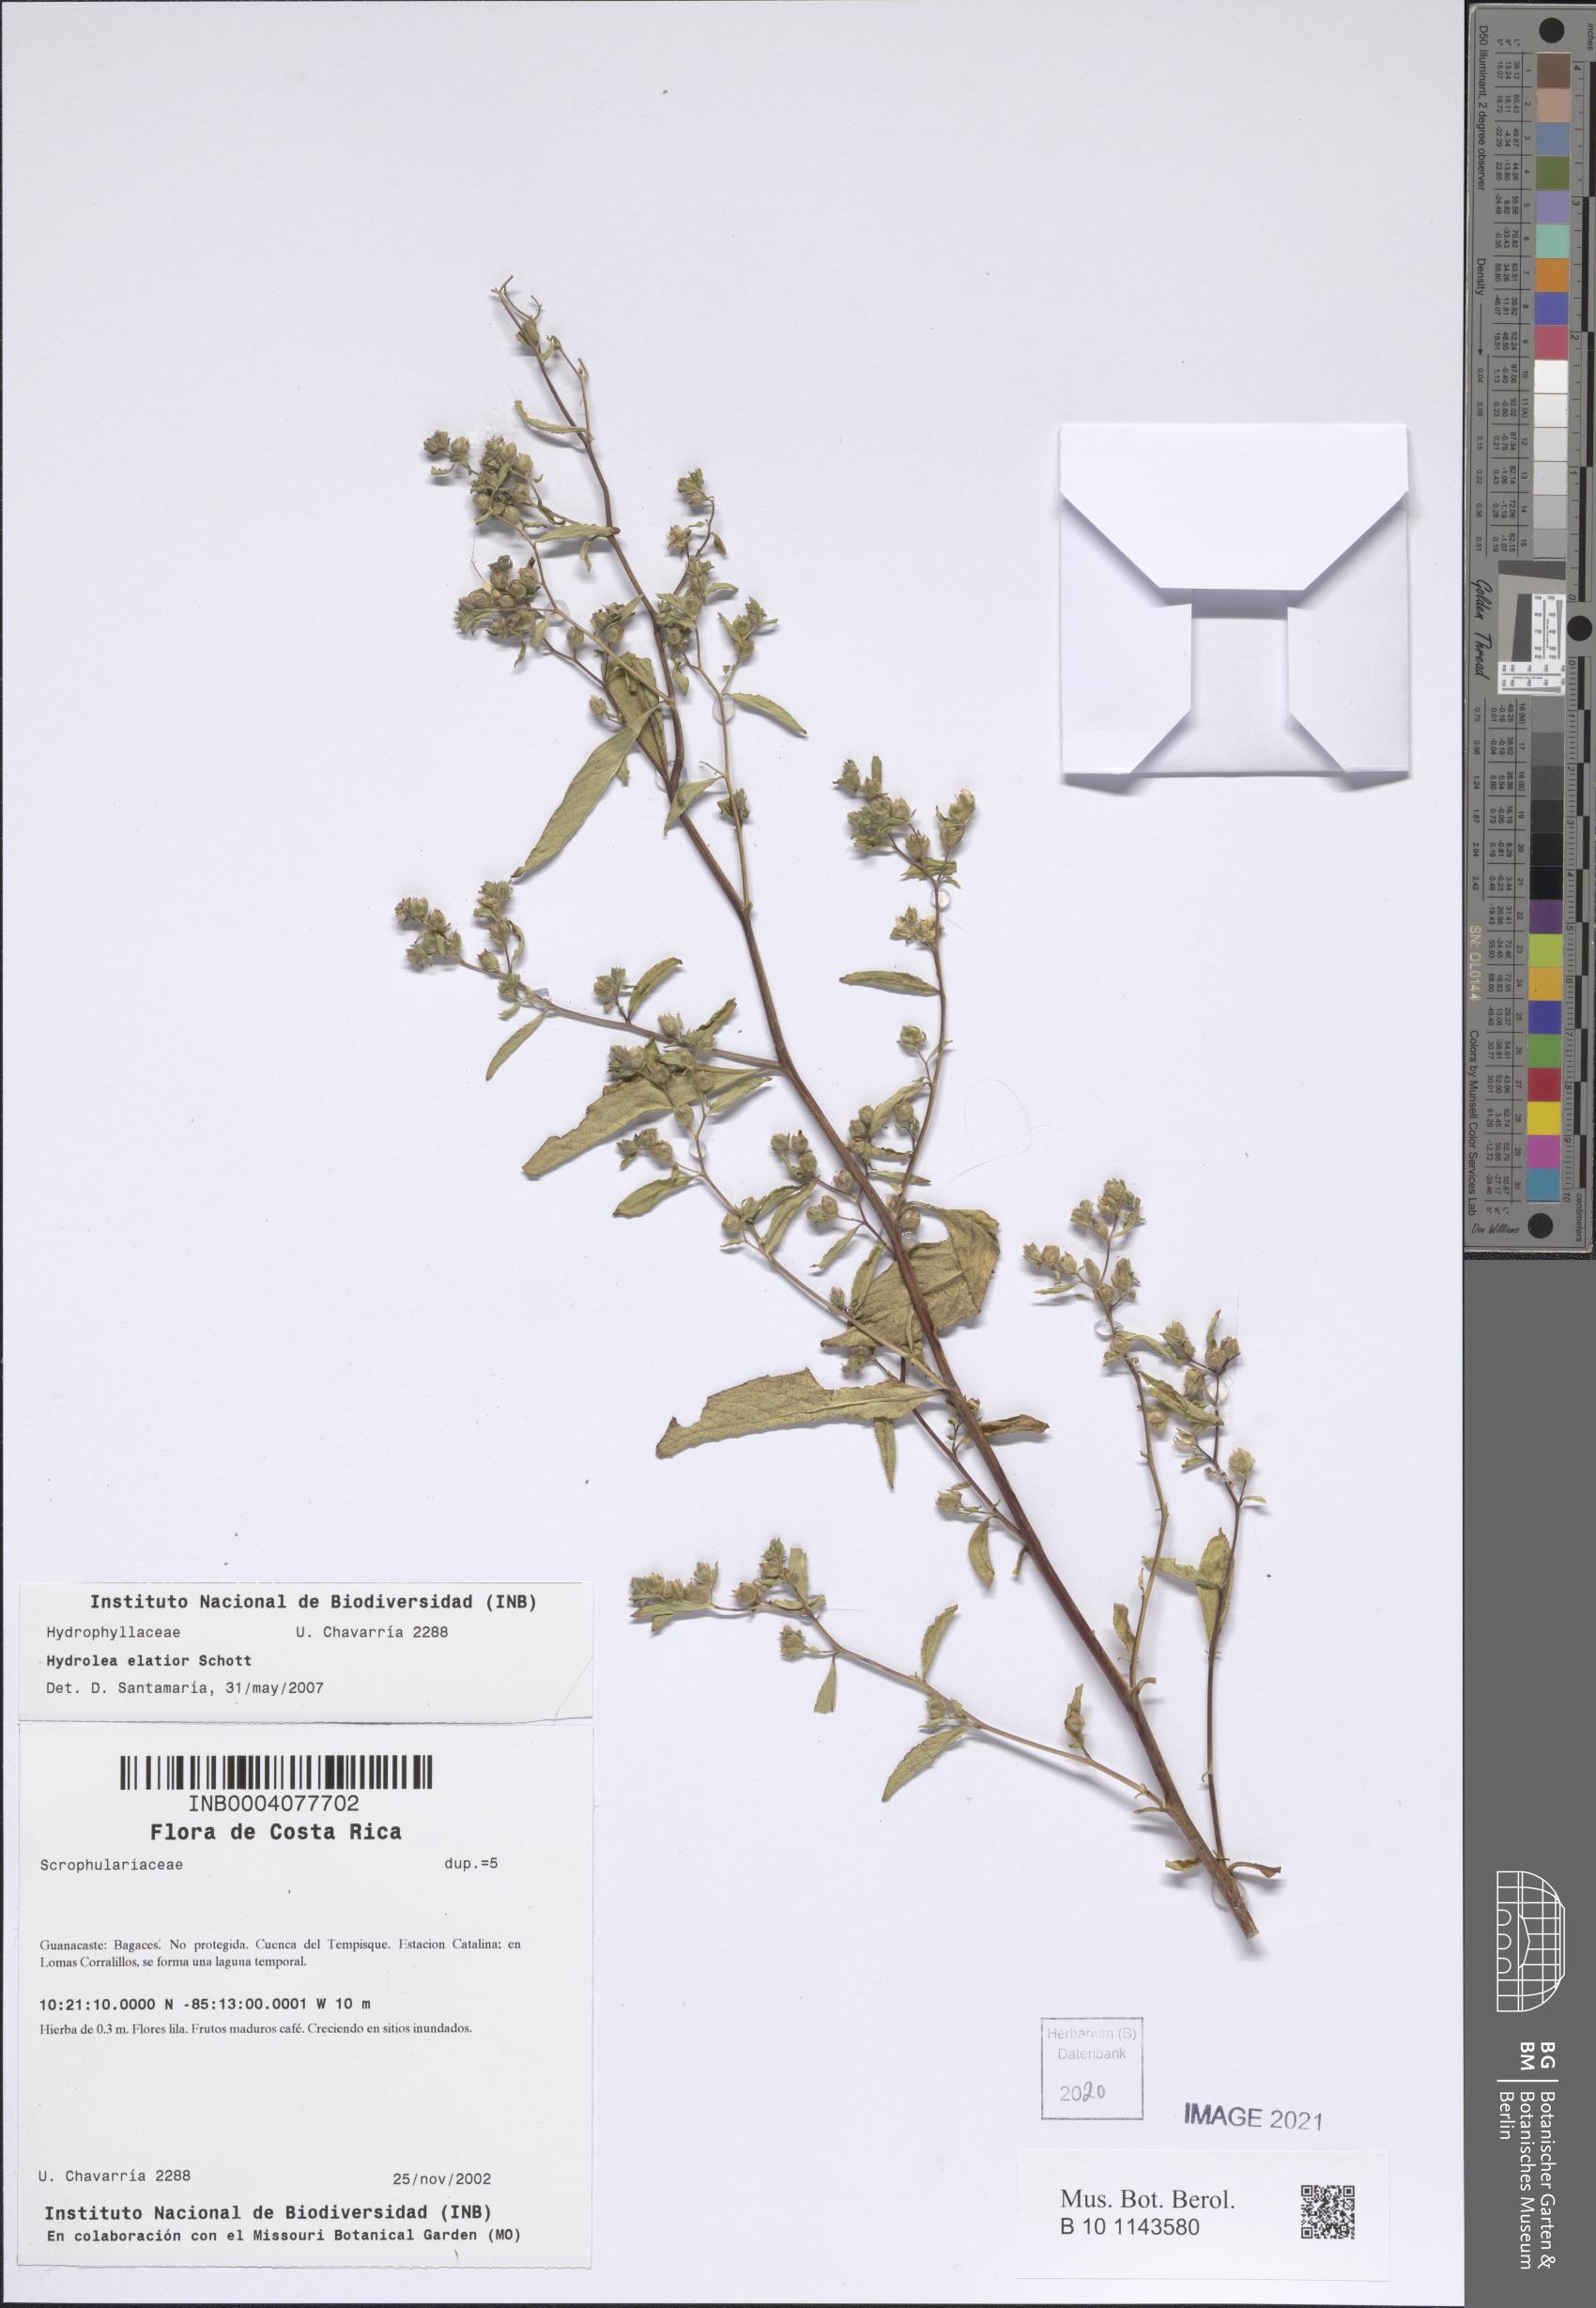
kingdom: Plantae
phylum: Tracheophyta
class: Magnoliopsida
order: Solanales
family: Hydroleaceae
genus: Hydrolea
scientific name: Hydrolea elatior
